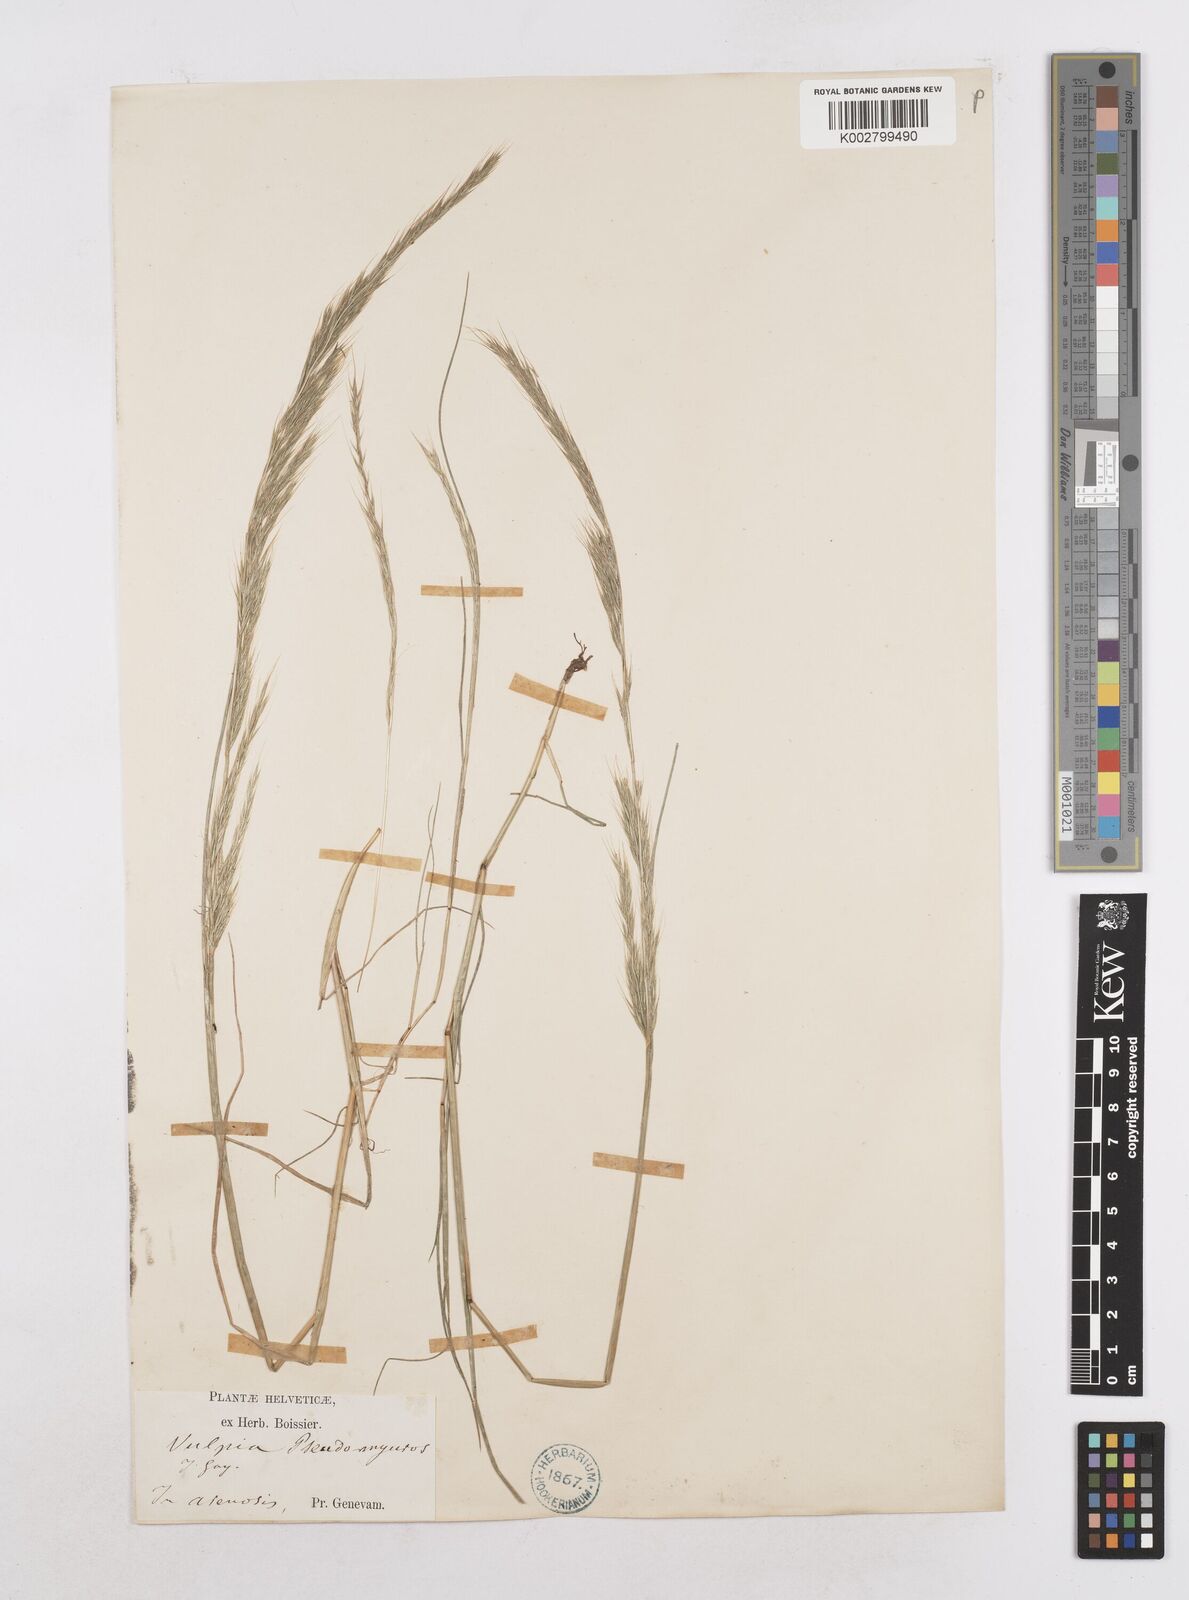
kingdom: Plantae
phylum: Tracheophyta
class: Liliopsida
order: Poales
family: Poaceae
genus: Festuca
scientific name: Festuca myuros
